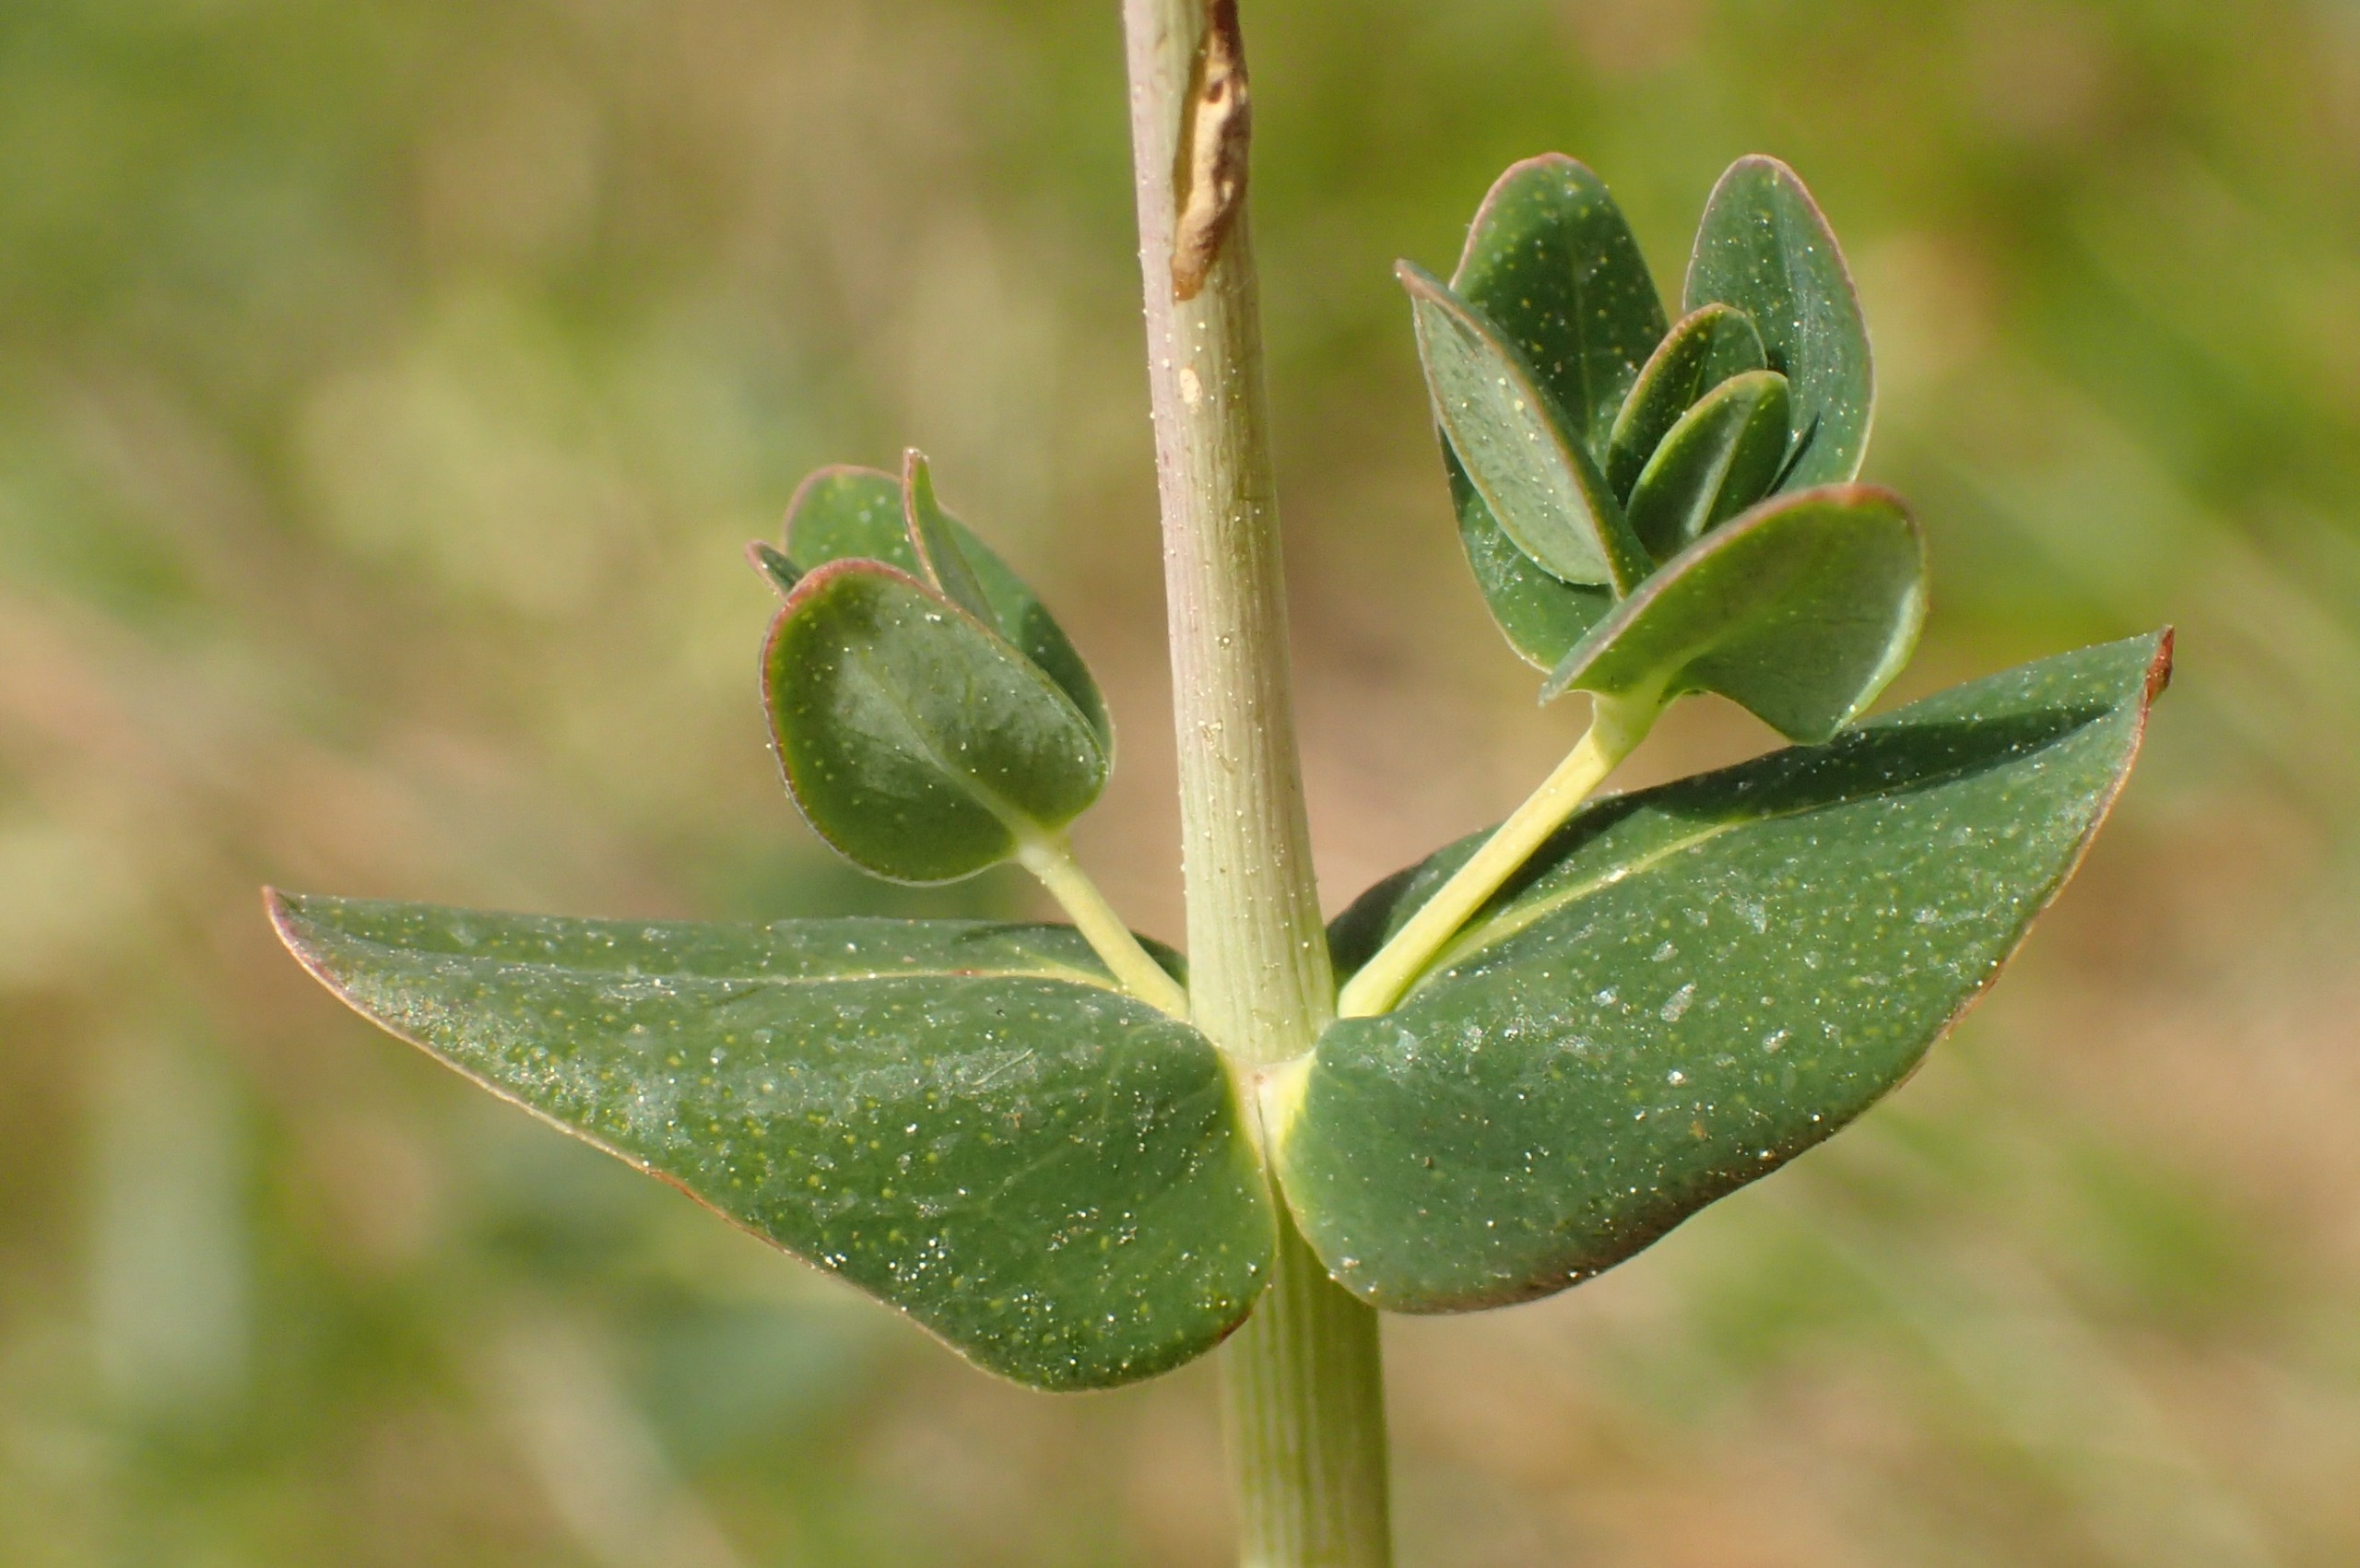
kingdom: Plantae
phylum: Tracheophyta
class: Magnoliopsida
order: Malpighiales
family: Hypericaceae
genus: Hypericum
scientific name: Hypericum pulchrum
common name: Smuk perikon
